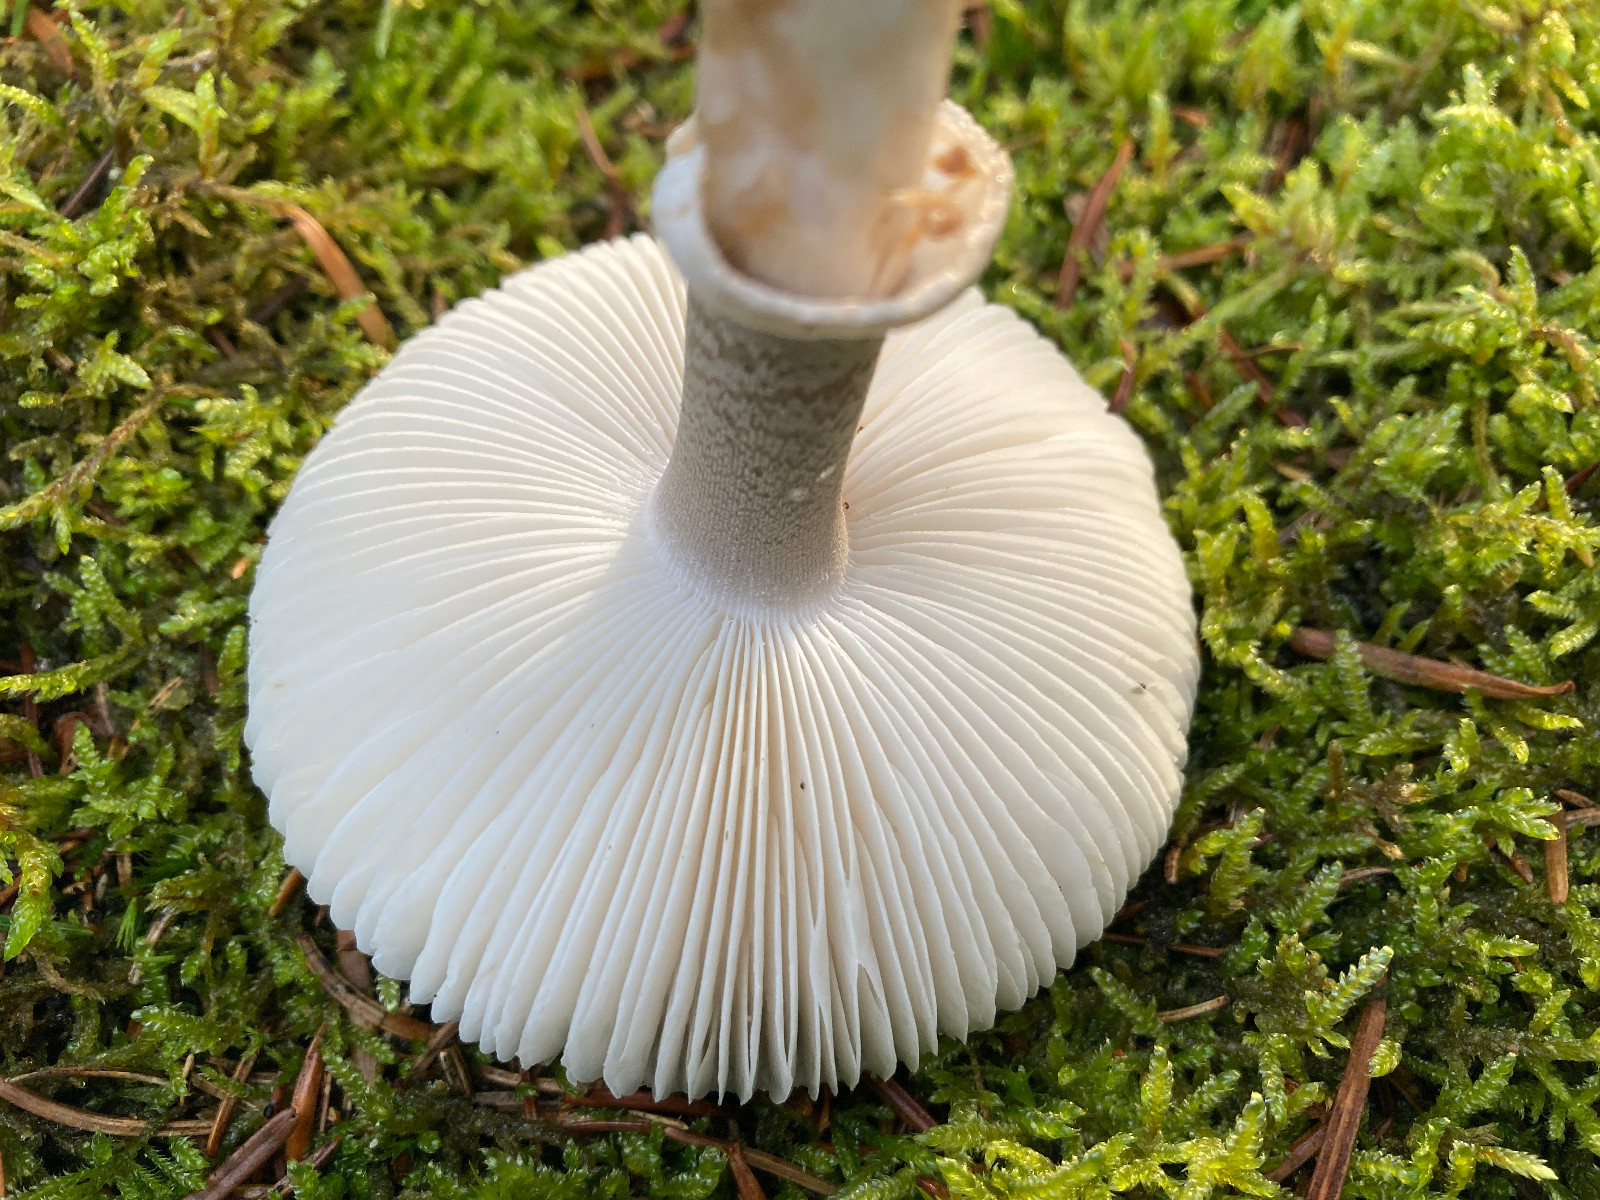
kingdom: Fungi
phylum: Basidiomycota
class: Agaricomycetes
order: Agaricales
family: Amanitaceae
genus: Amanita
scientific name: Amanita
